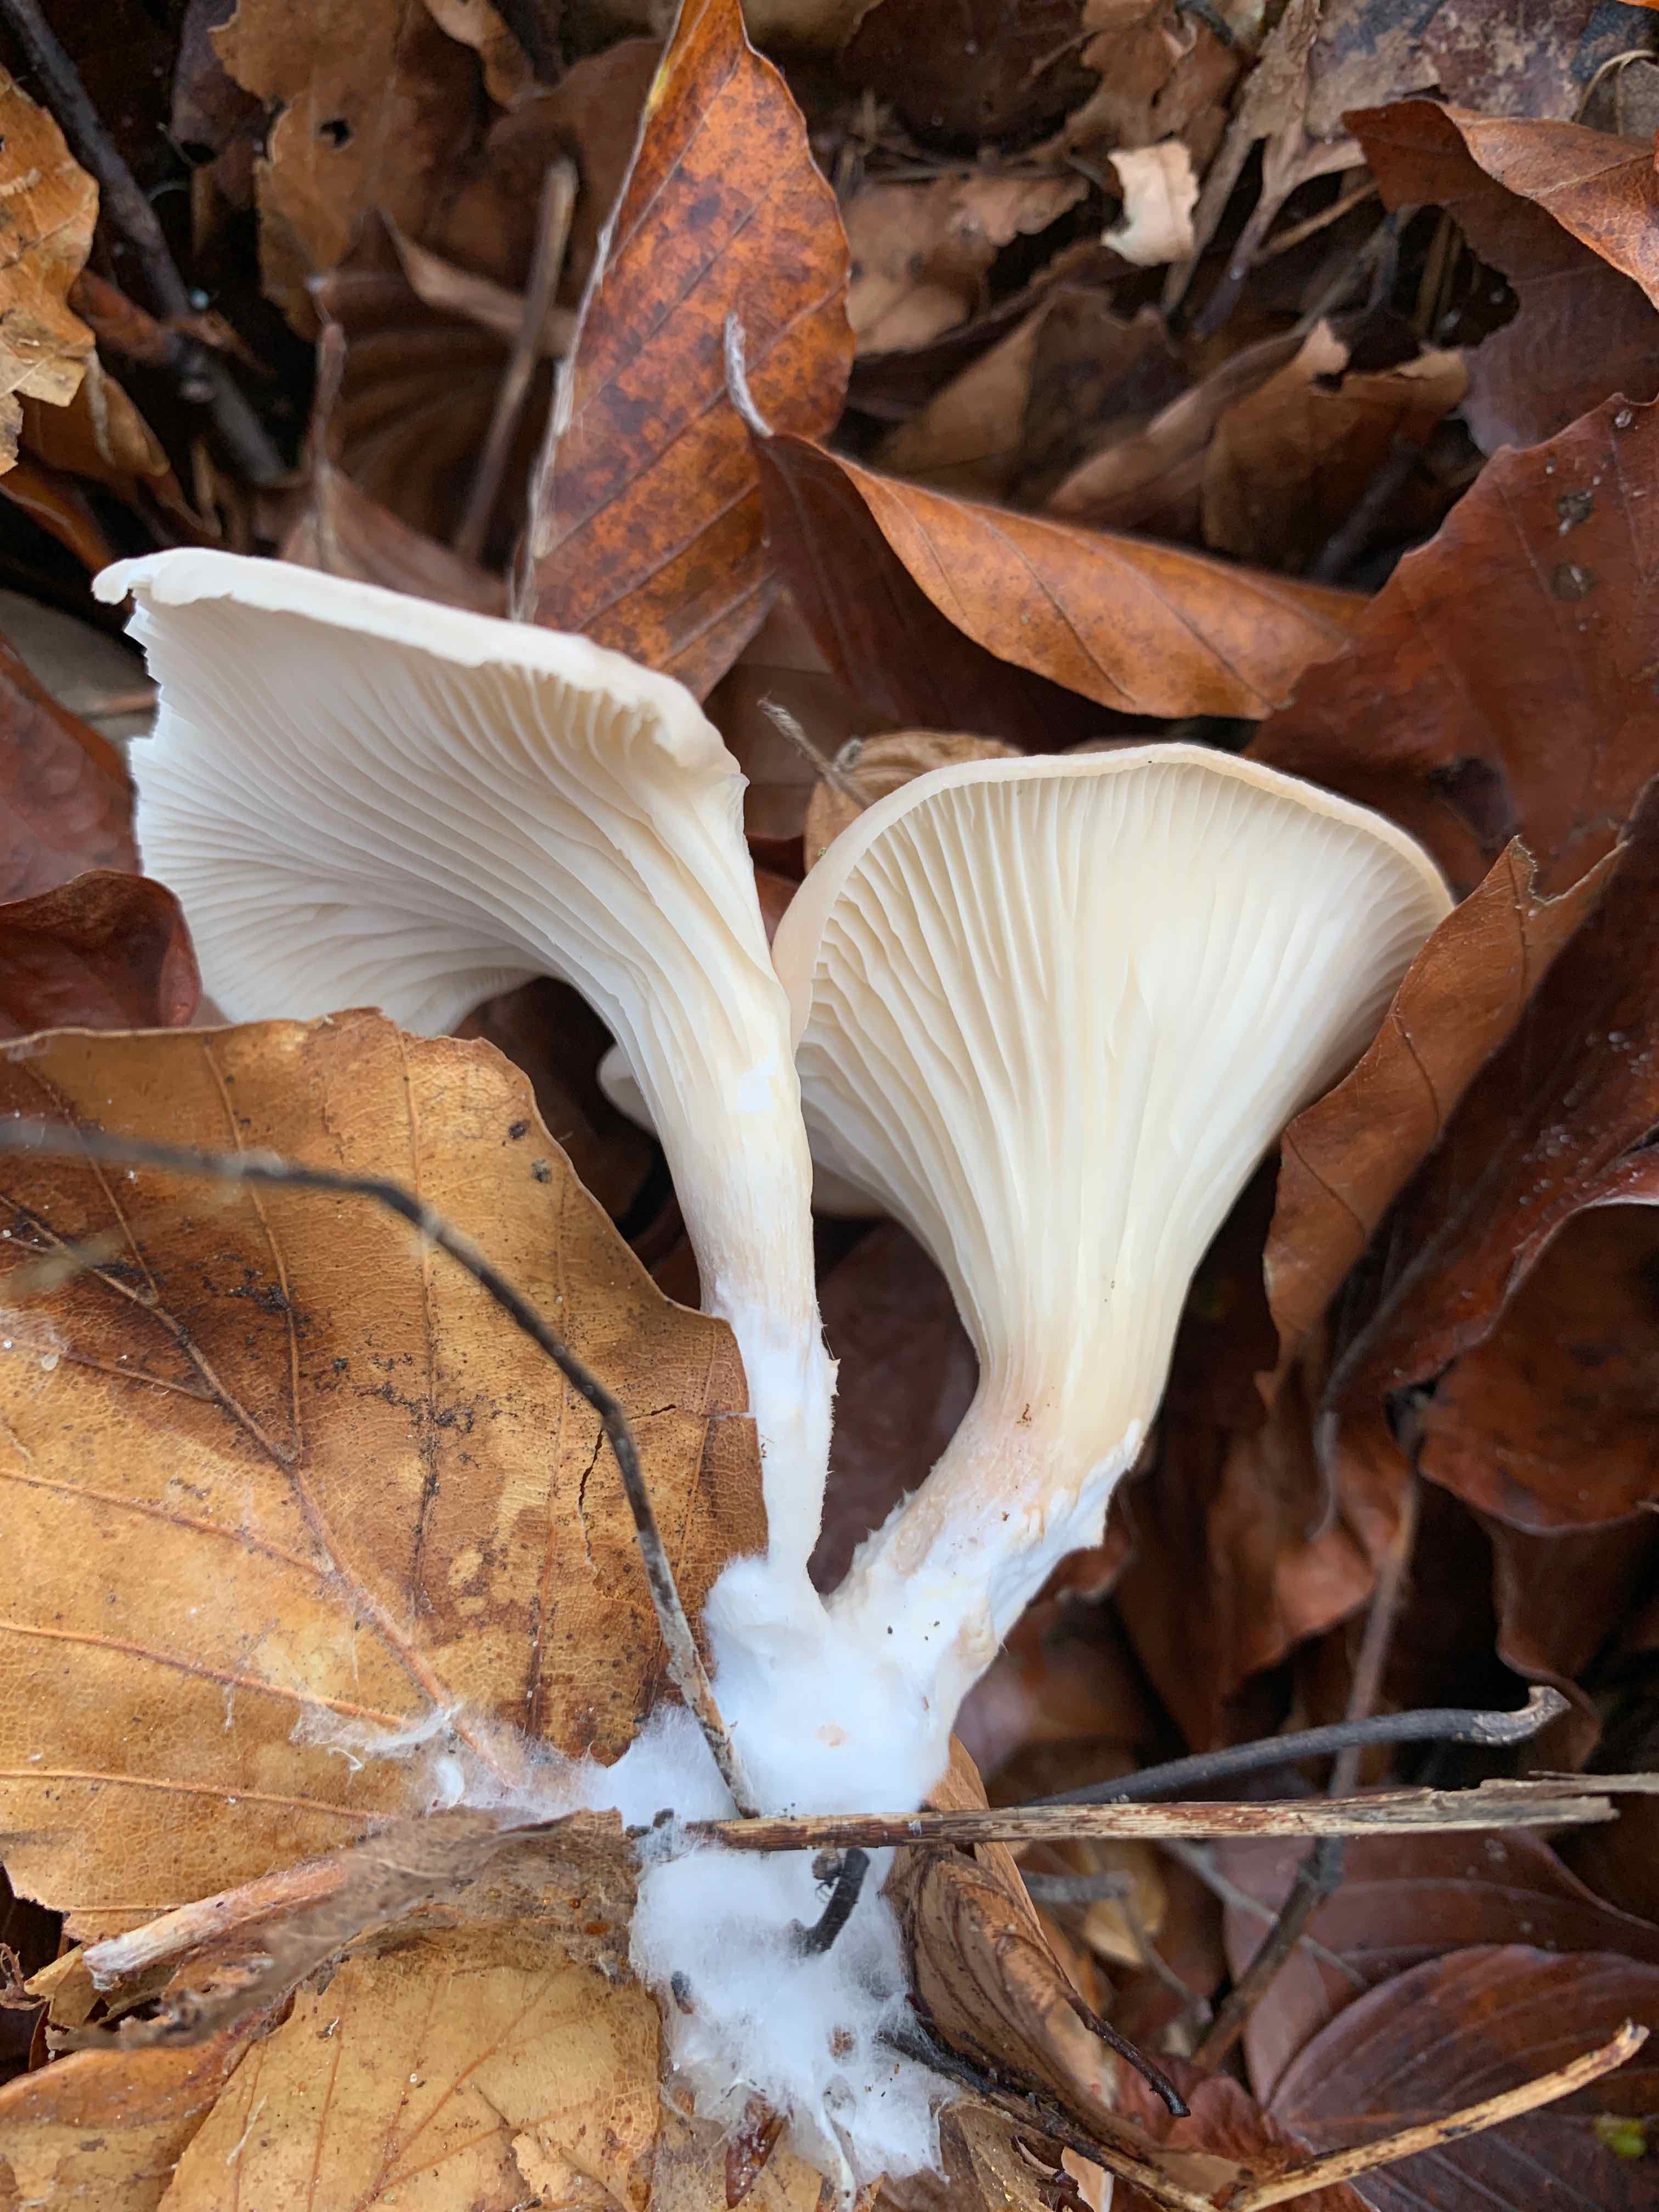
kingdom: Fungi
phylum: Basidiomycota
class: Agaricomycetes
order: Agaricales
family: Tricholomataceae
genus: Infundibulicybe
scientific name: Infundibulicybe gibba
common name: almindelig tragthat
